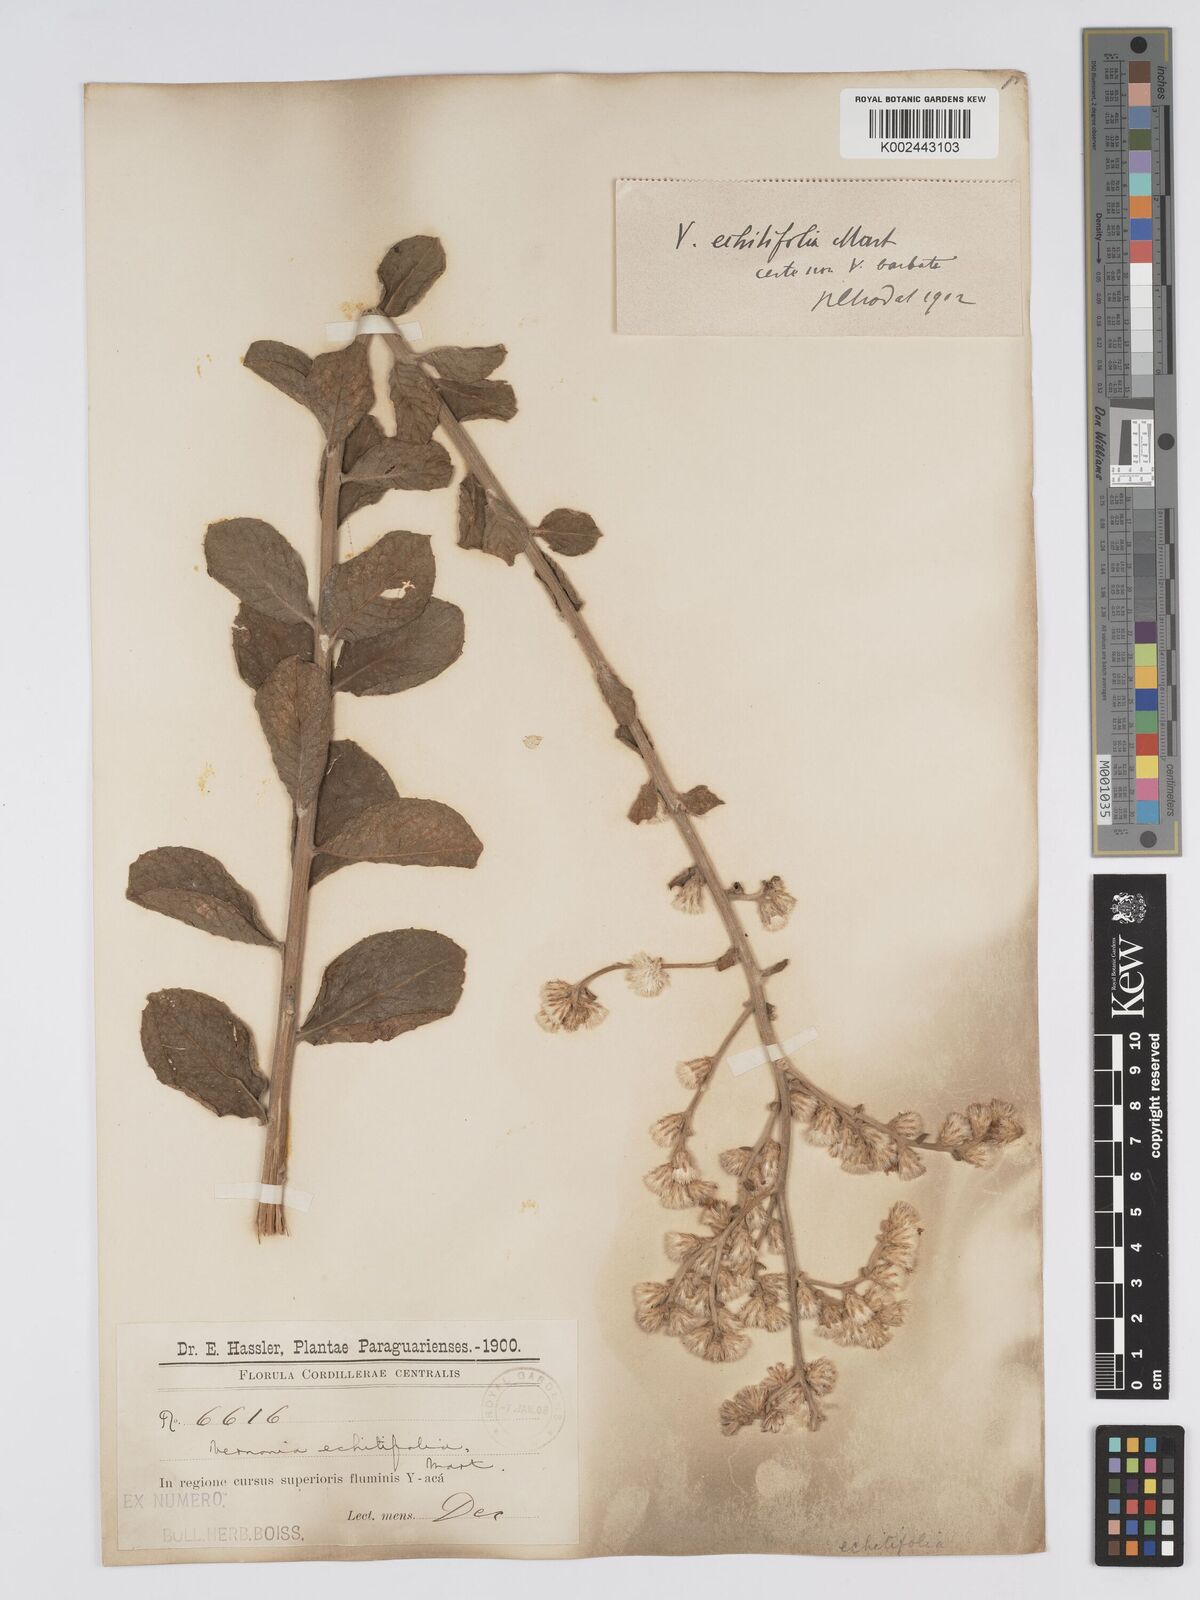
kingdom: Plantae
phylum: Tracheophyta
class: Magnoliopsida
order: Asterales
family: Asteraceae
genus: Acilepidopsis
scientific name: Acilepidopsis echitifolia
